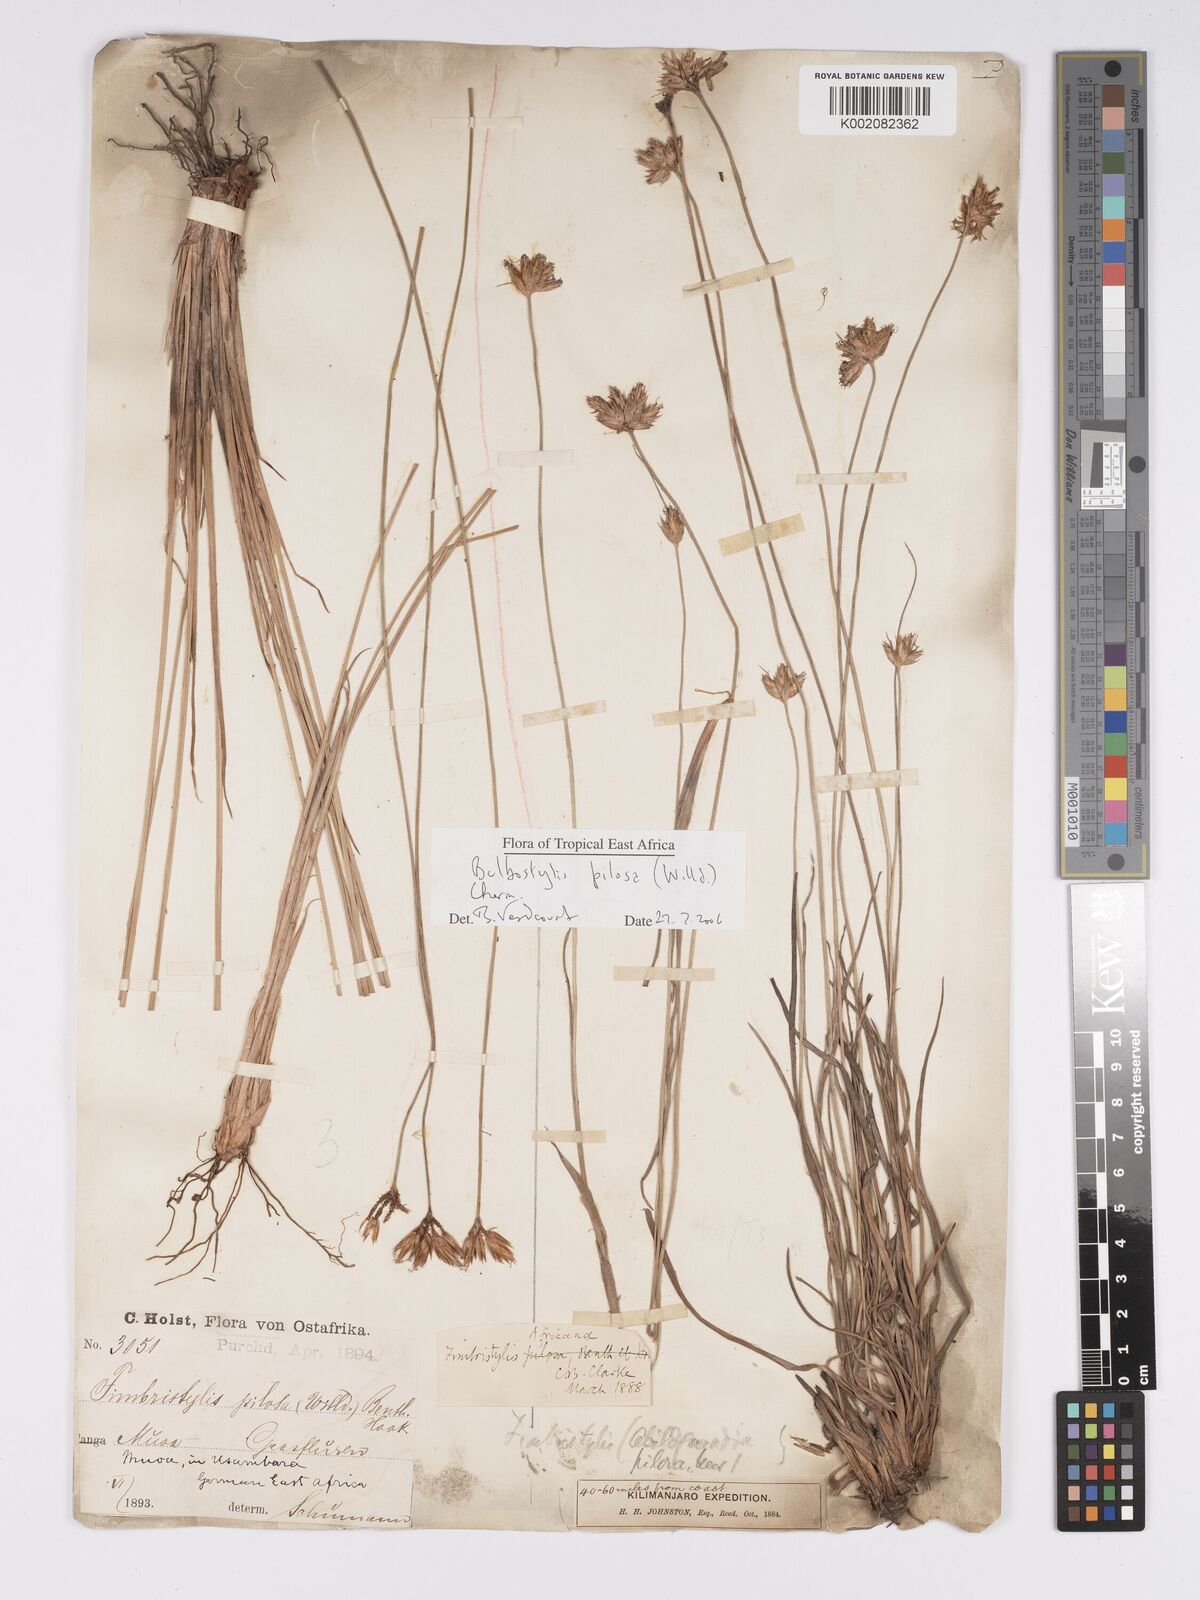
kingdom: Plantae
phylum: Tracheophyta
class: Liliopsida
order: Poales
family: Cyperaceae
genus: Bulbostylis
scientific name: Bulbostylis pilosa
